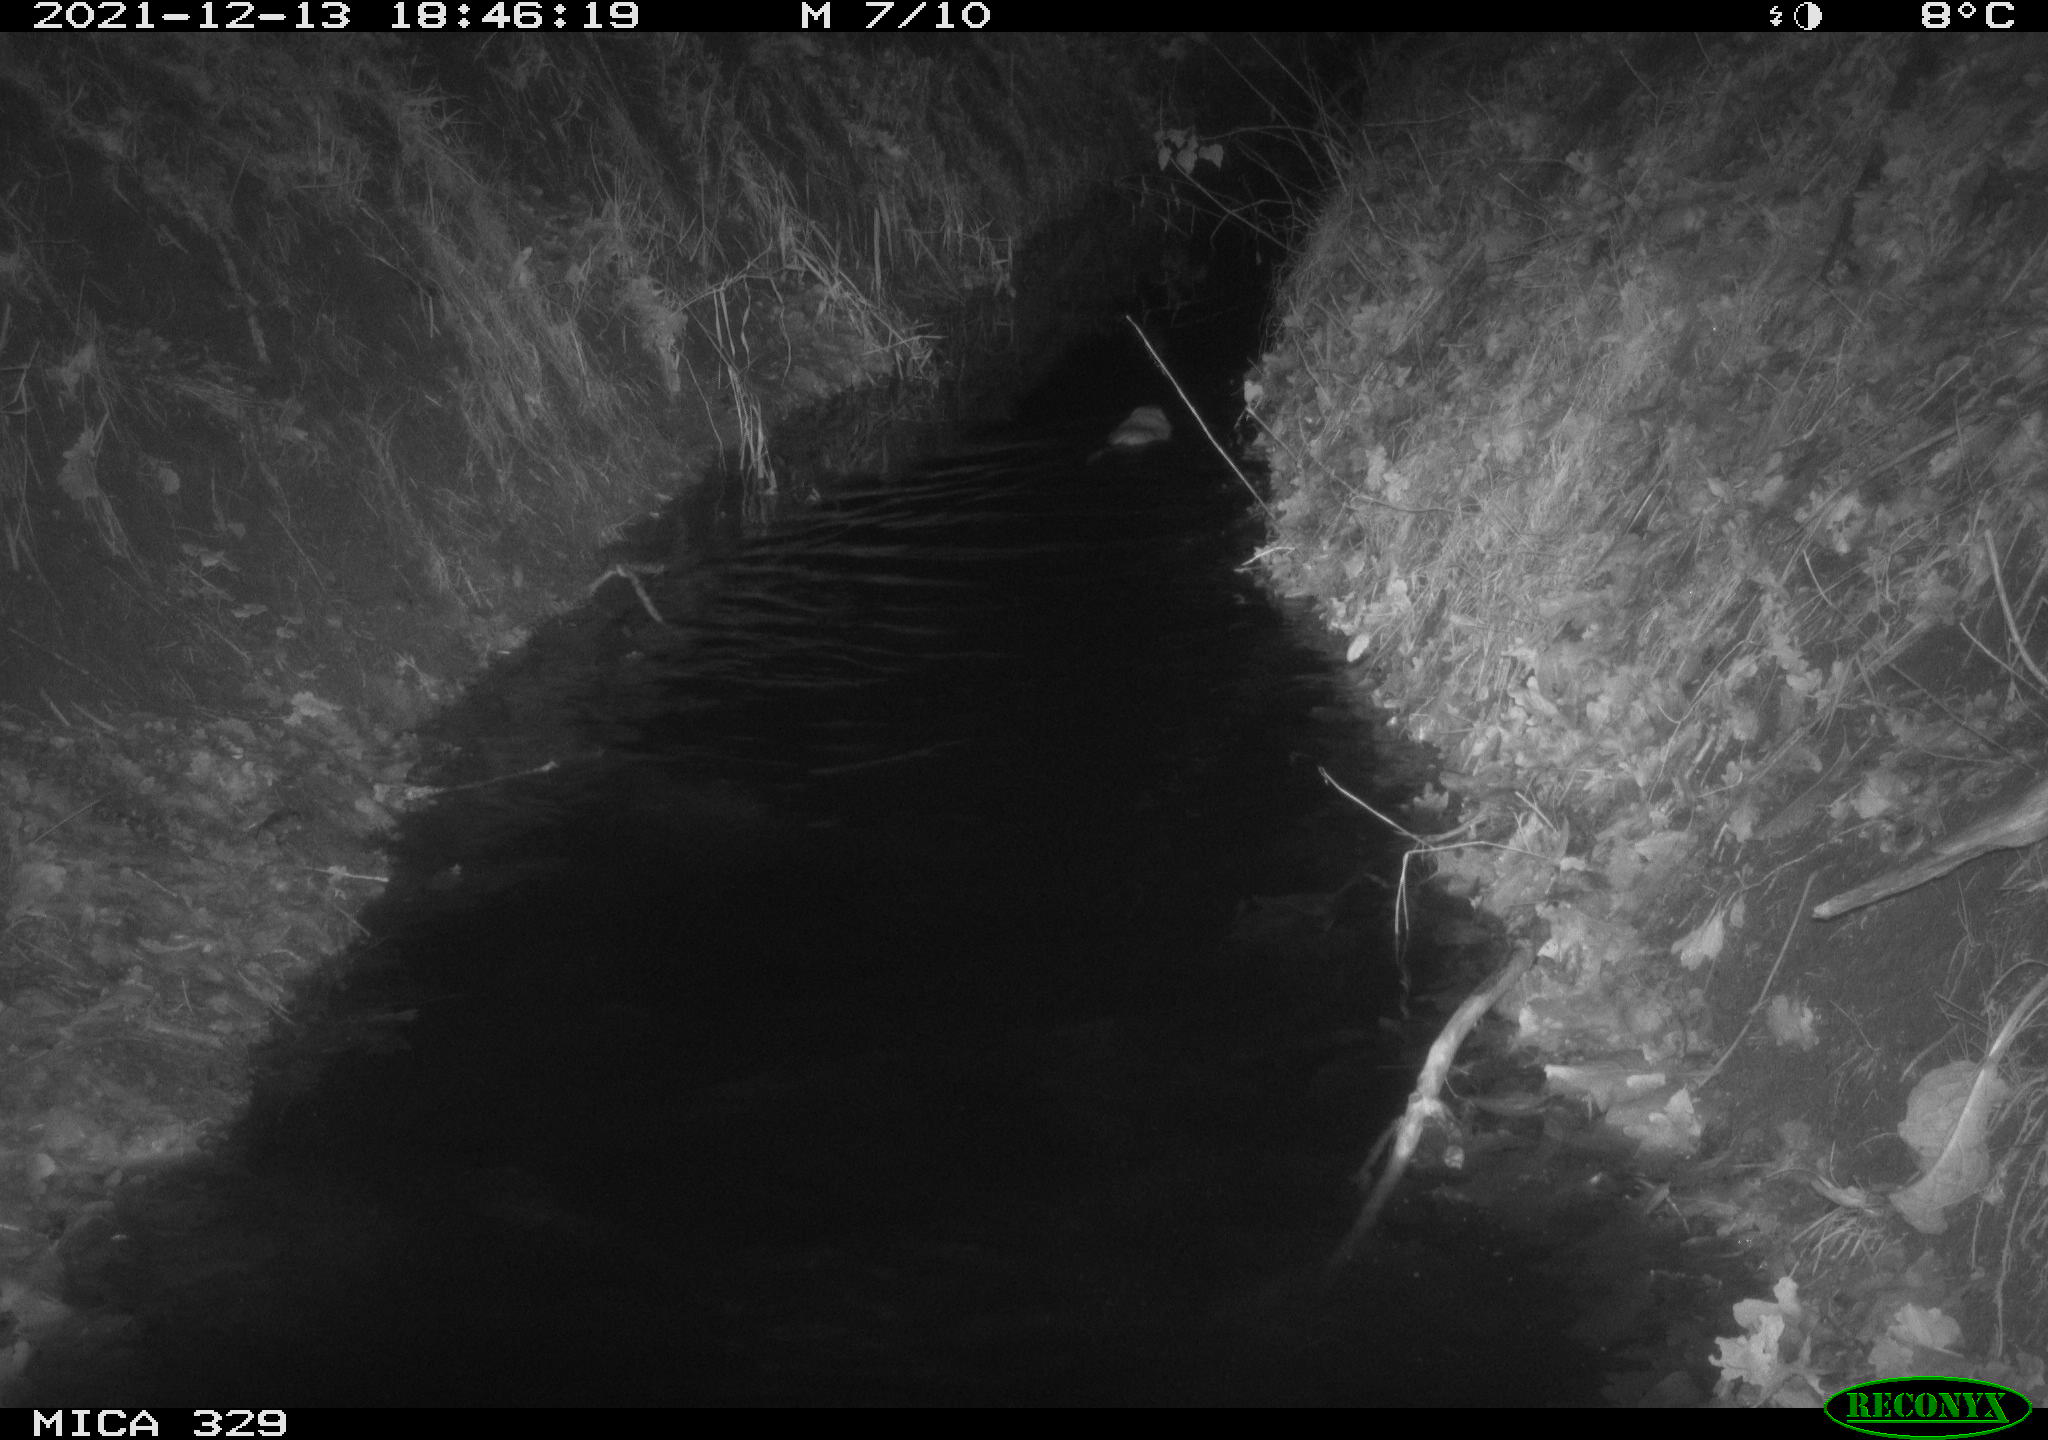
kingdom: Animalia
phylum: Chordata
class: Mammalia
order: Rodentia
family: Cricetidae
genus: Ondatra
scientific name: Ondatra zibethicus
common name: Muskrat
